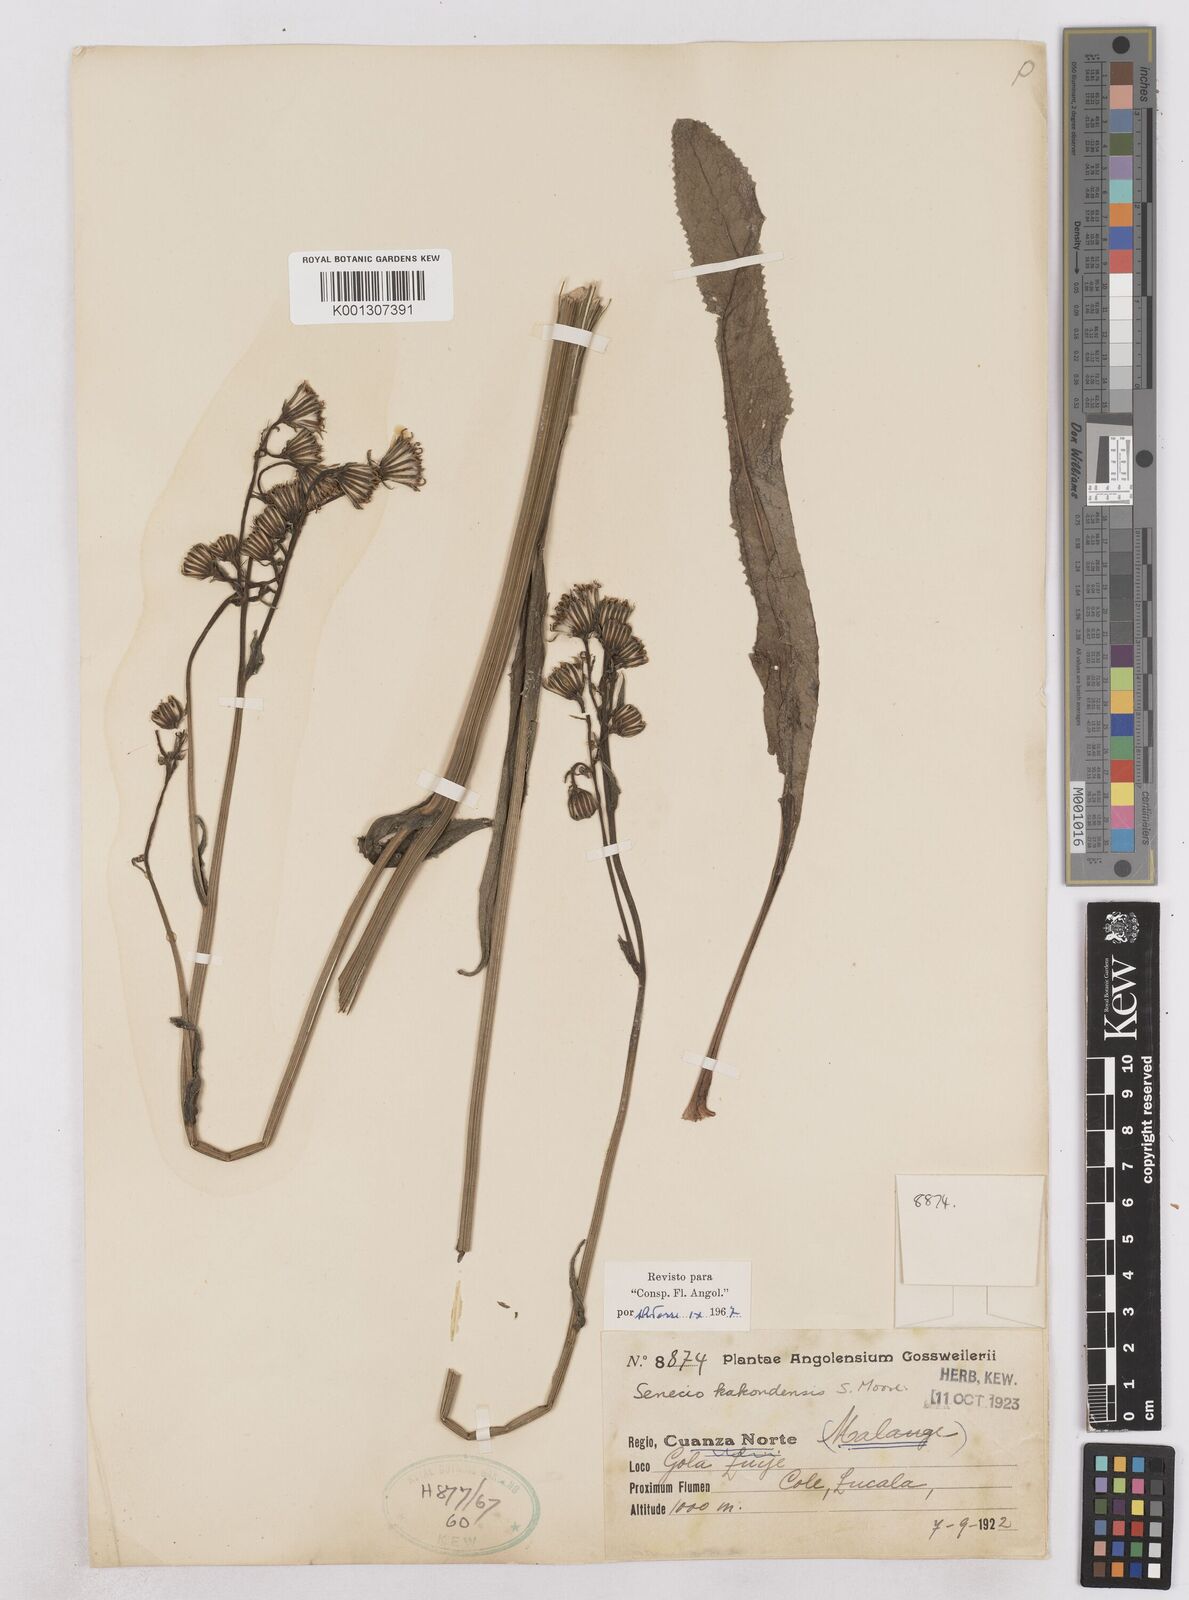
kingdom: Plantae
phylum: Tracheophyta
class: Magnoliopsida
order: Asterales
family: Asteraceae
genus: Senecio
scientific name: Senecio swynnertonii
